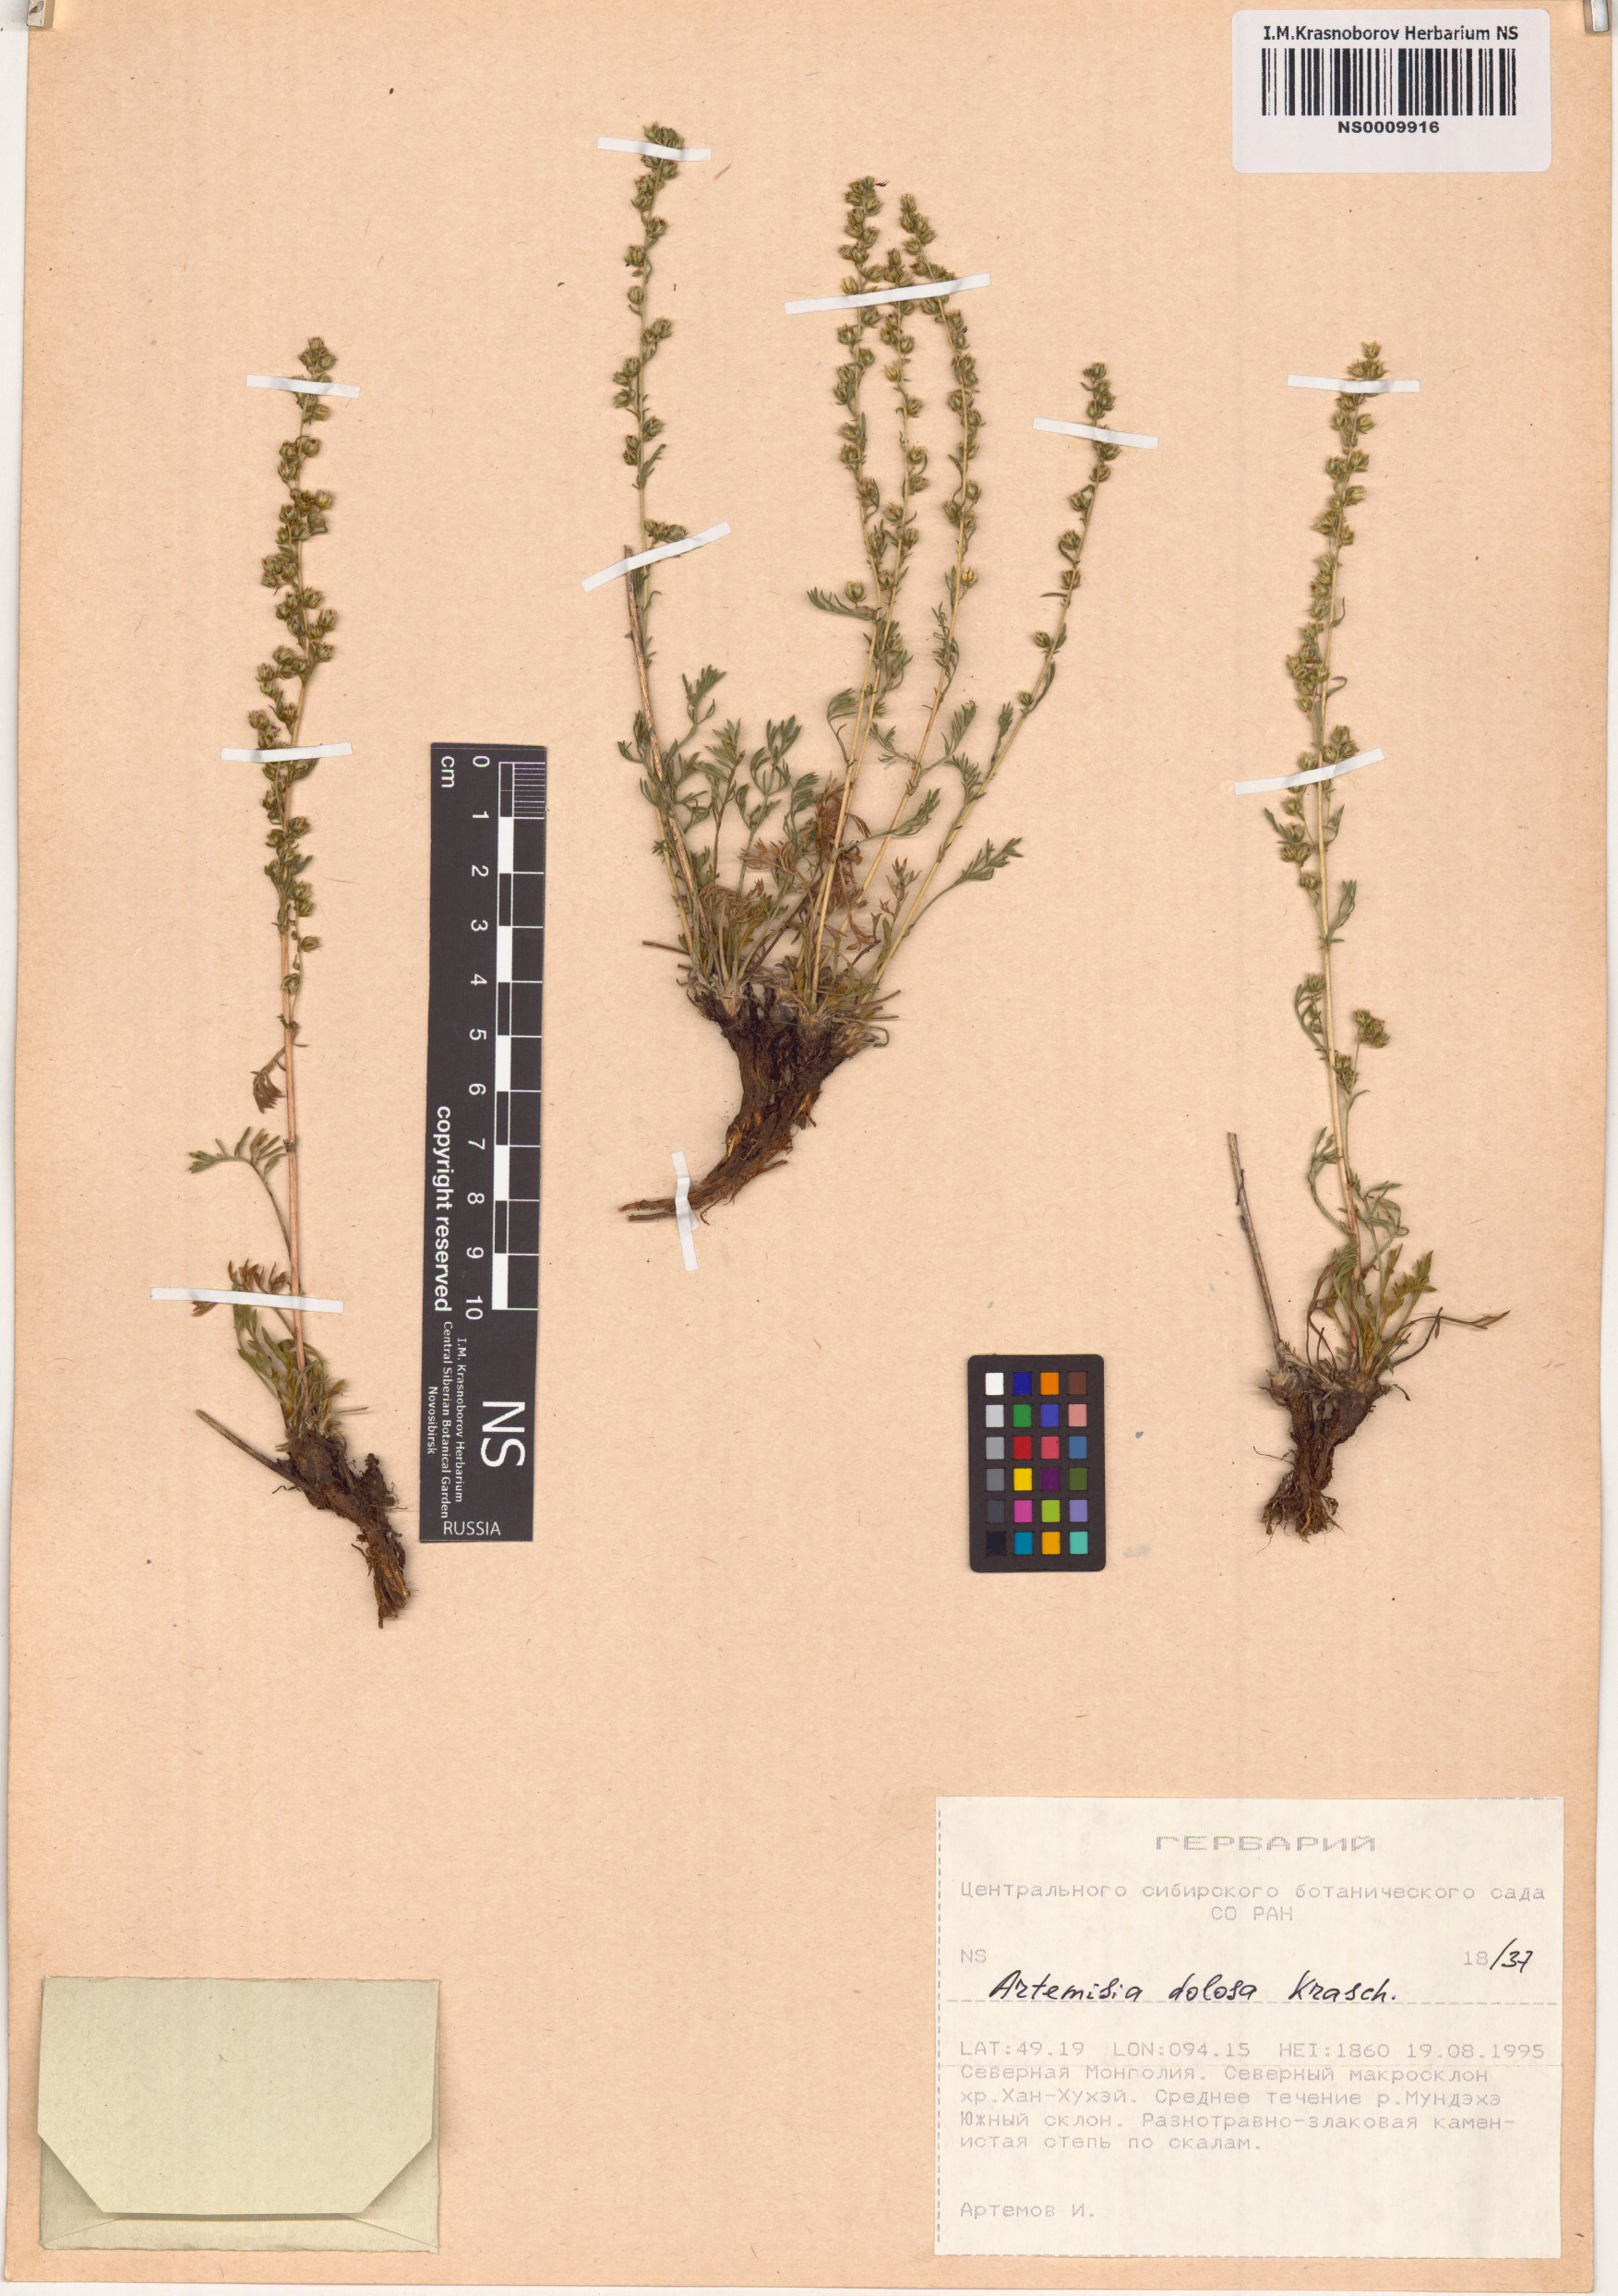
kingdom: Plantae
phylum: Tracheophyta
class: Magnoliopsida
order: Asterales
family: Asteraceae
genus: Artemisia
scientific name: Artemisia dolosa
